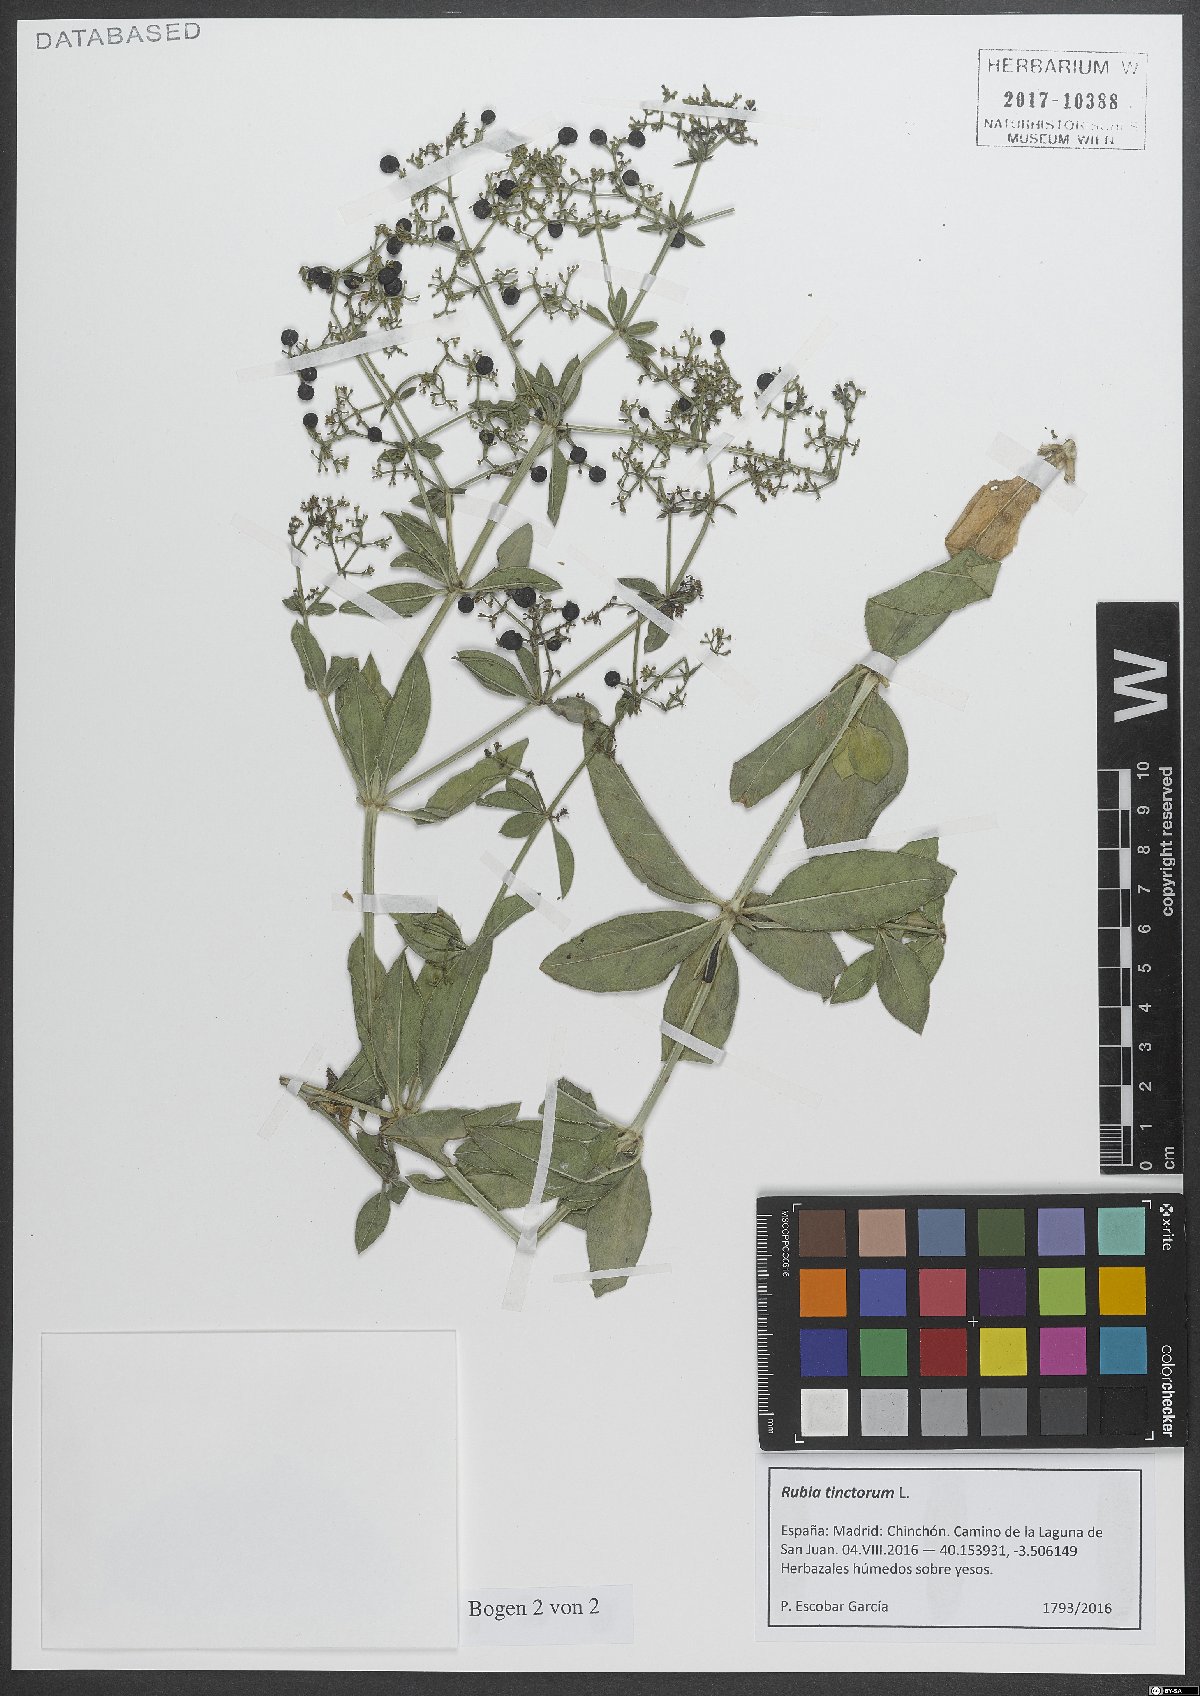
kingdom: Plantae
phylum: Tracheophyta
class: Magnoliopsida
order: Gentianales
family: Rubiaceae
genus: Rubia
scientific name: Rubia tinctorum
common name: Dyer's madder
